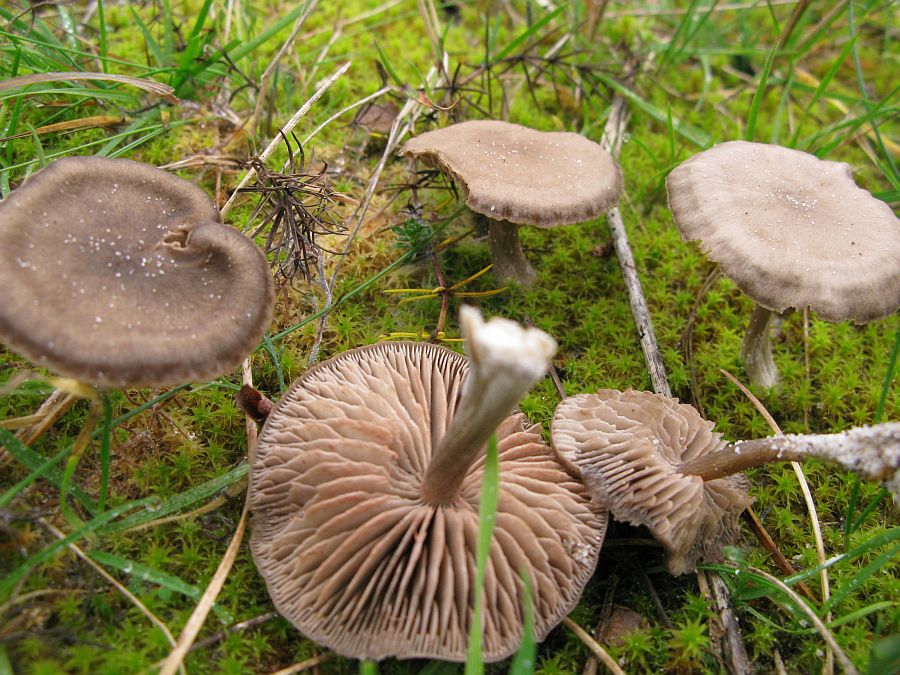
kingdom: Fungi
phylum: Basidiomycota
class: Agaricomycetes
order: Agaricales
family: Entolomataceae
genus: Entoloma
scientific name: Entoloma sericeum
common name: silkeglinsende rødblad
